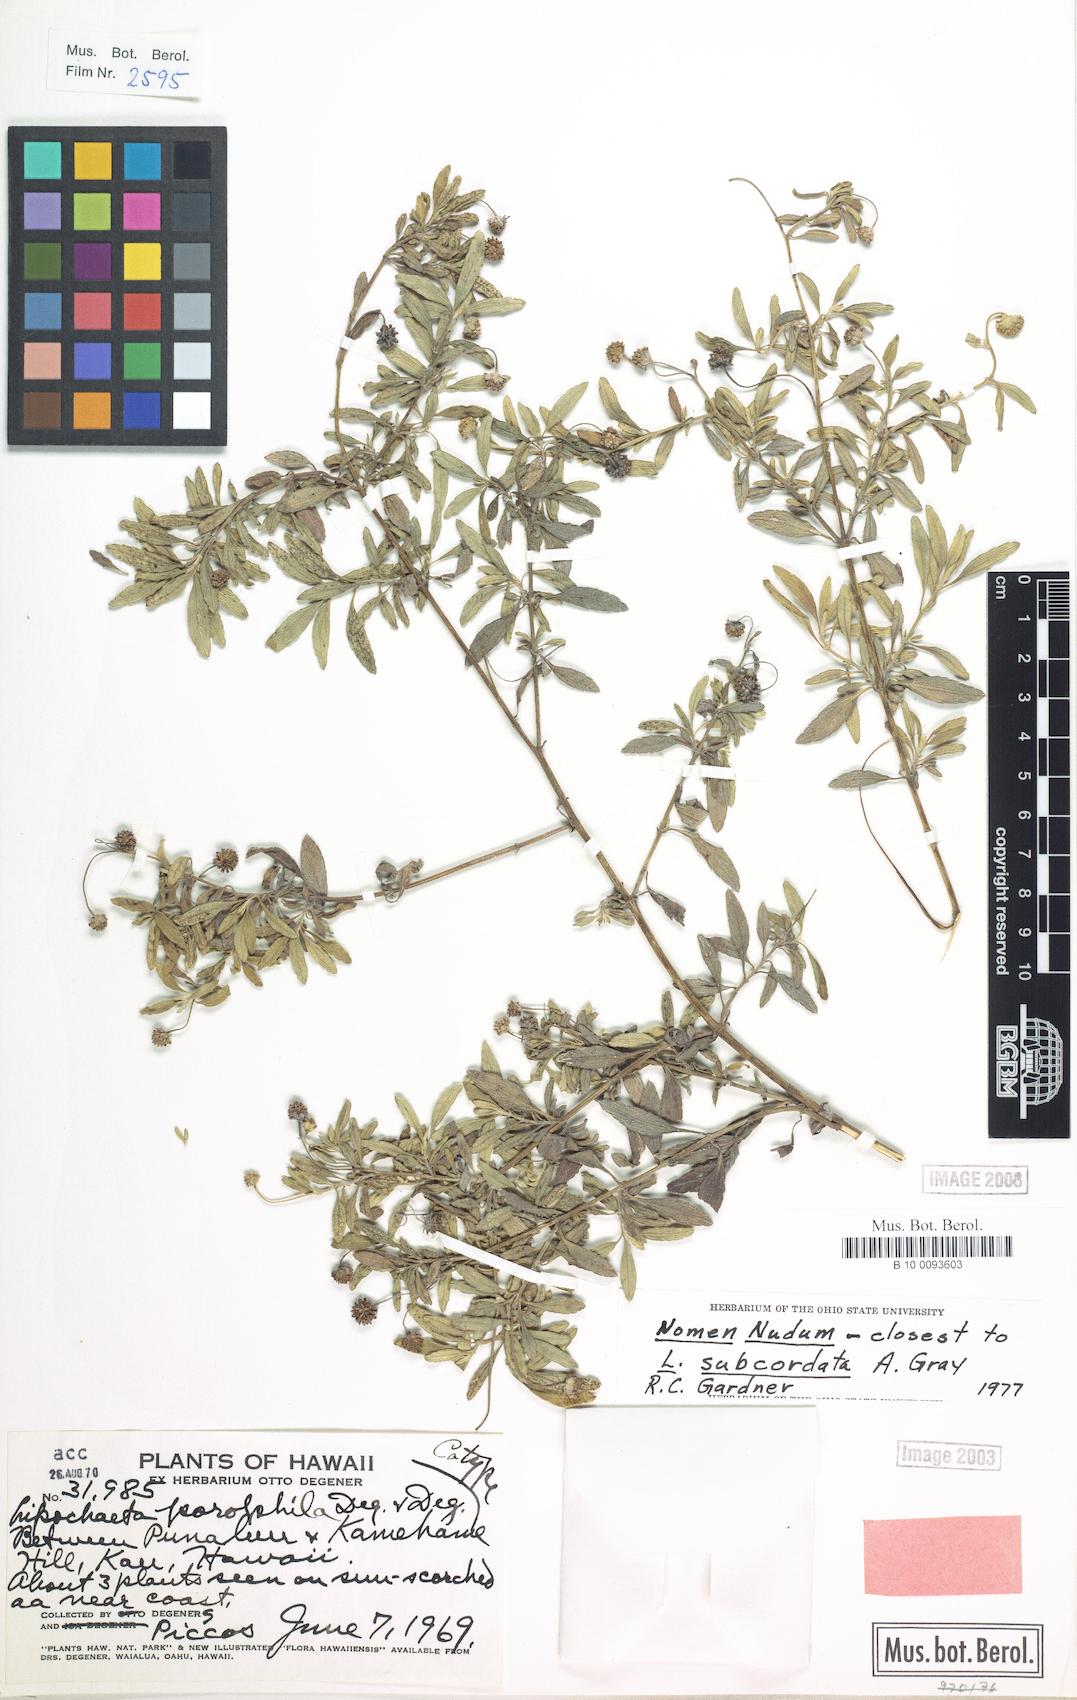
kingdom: Plantae
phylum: Tracheophyta
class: Magnoliopsida
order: Asterales
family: Asteraceae
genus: Lipochaeta
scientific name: Lipochaeta integrifolia
